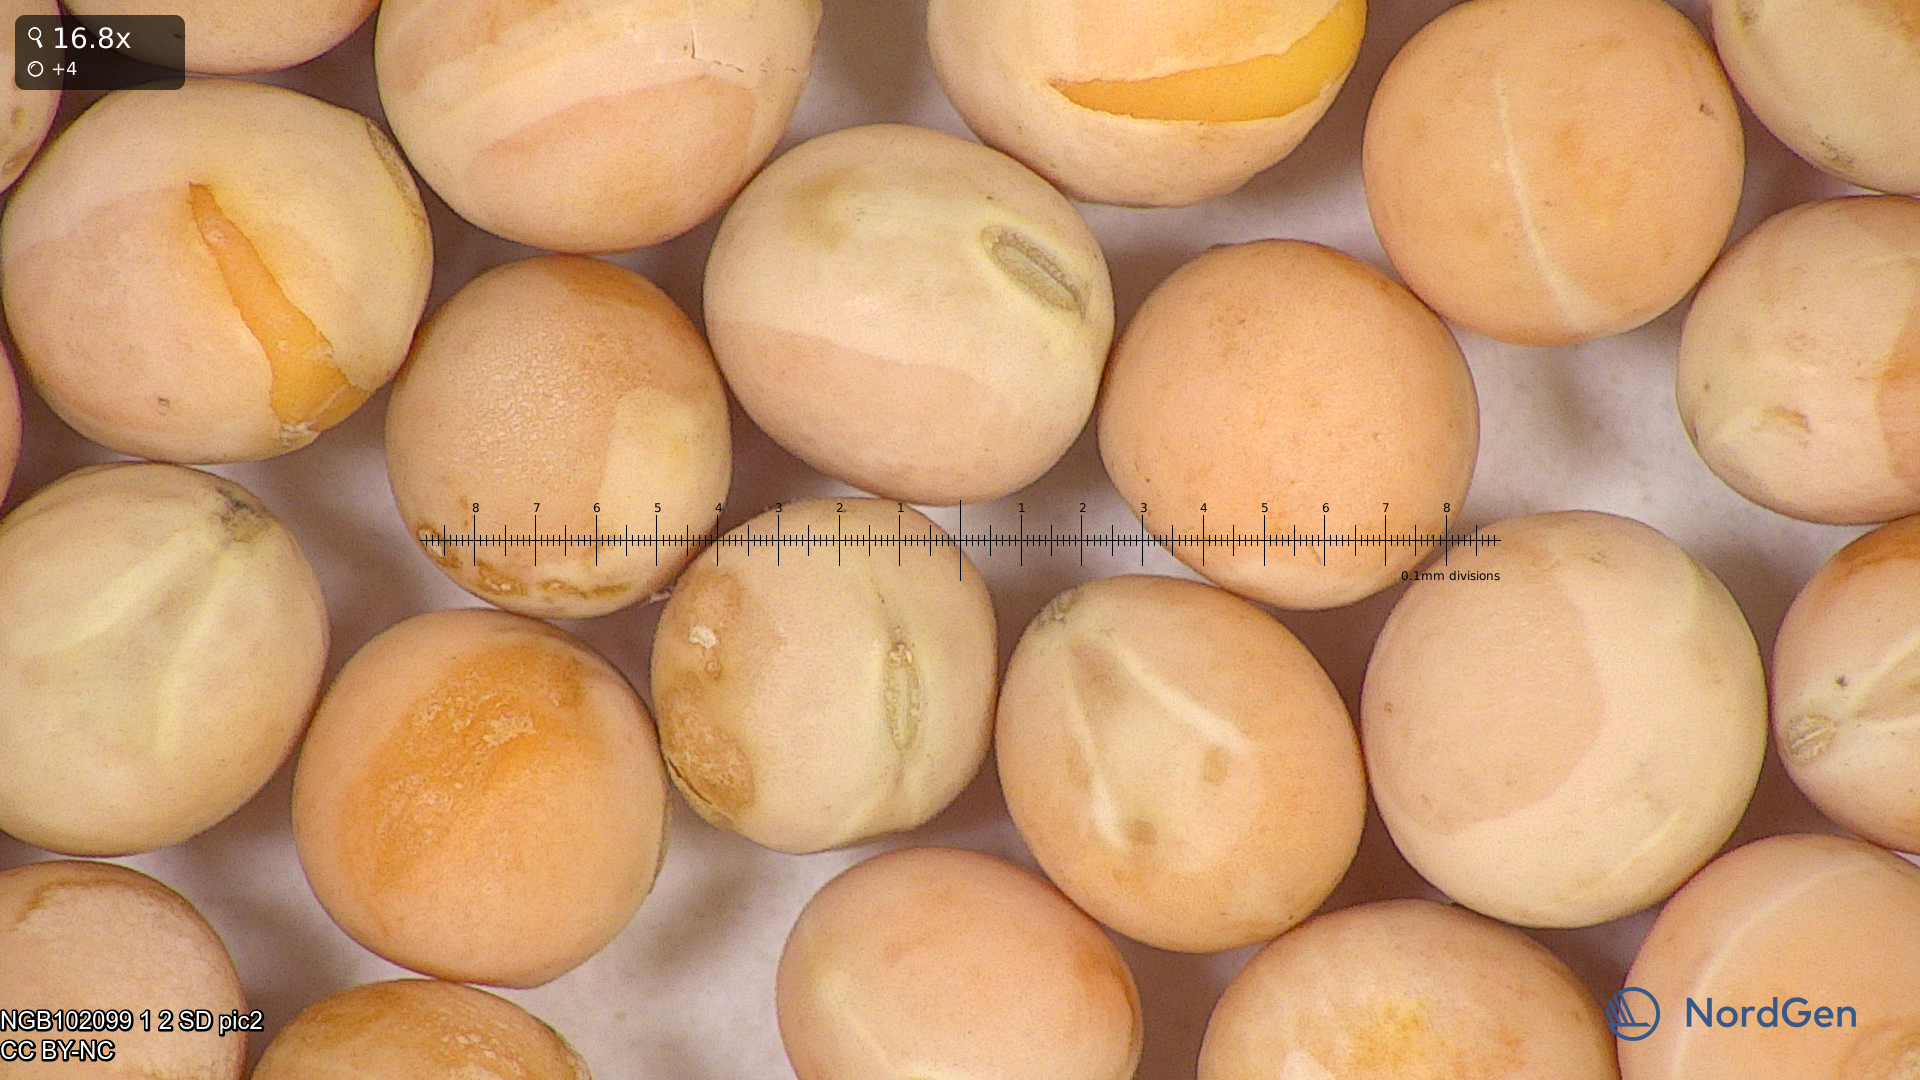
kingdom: Plantae
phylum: Tracheophyta
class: Magnoliopsida
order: Fabales
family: Fabaceae
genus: Lathyrus
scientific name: Lathyrus oleraceus
